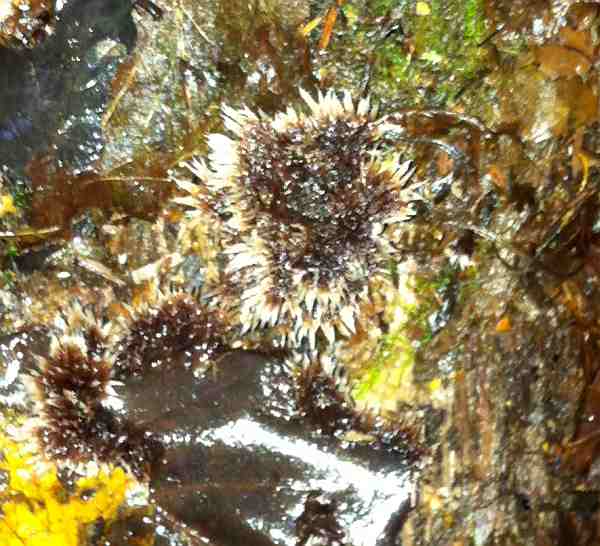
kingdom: Fungi
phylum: Basidiomycota
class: Agaricomycetes
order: Thelephorales
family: Thelephoraceae
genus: Thelephora
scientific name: Thelephora penicillata
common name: fladtrådt frynsesvamp
